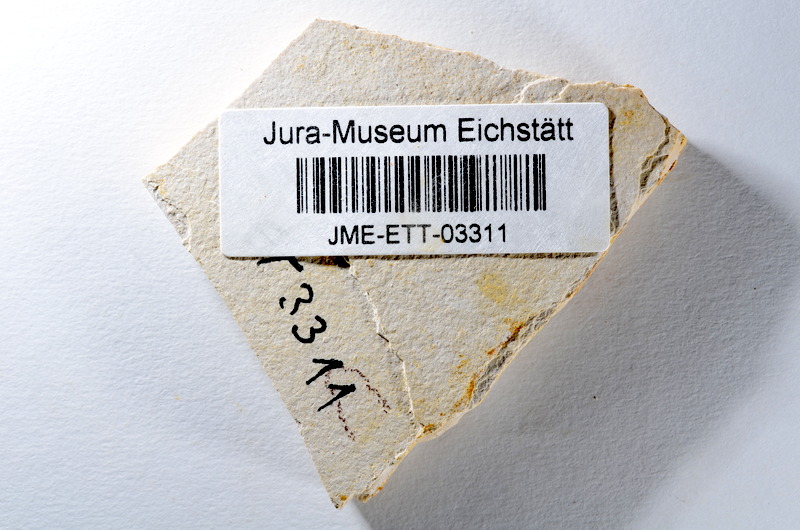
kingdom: Animalia
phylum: Chordata
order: Salmoniformes
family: Orthogonikleithridae
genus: Orthogonikleithrus
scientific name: Orthogonikleithrus hoelli
